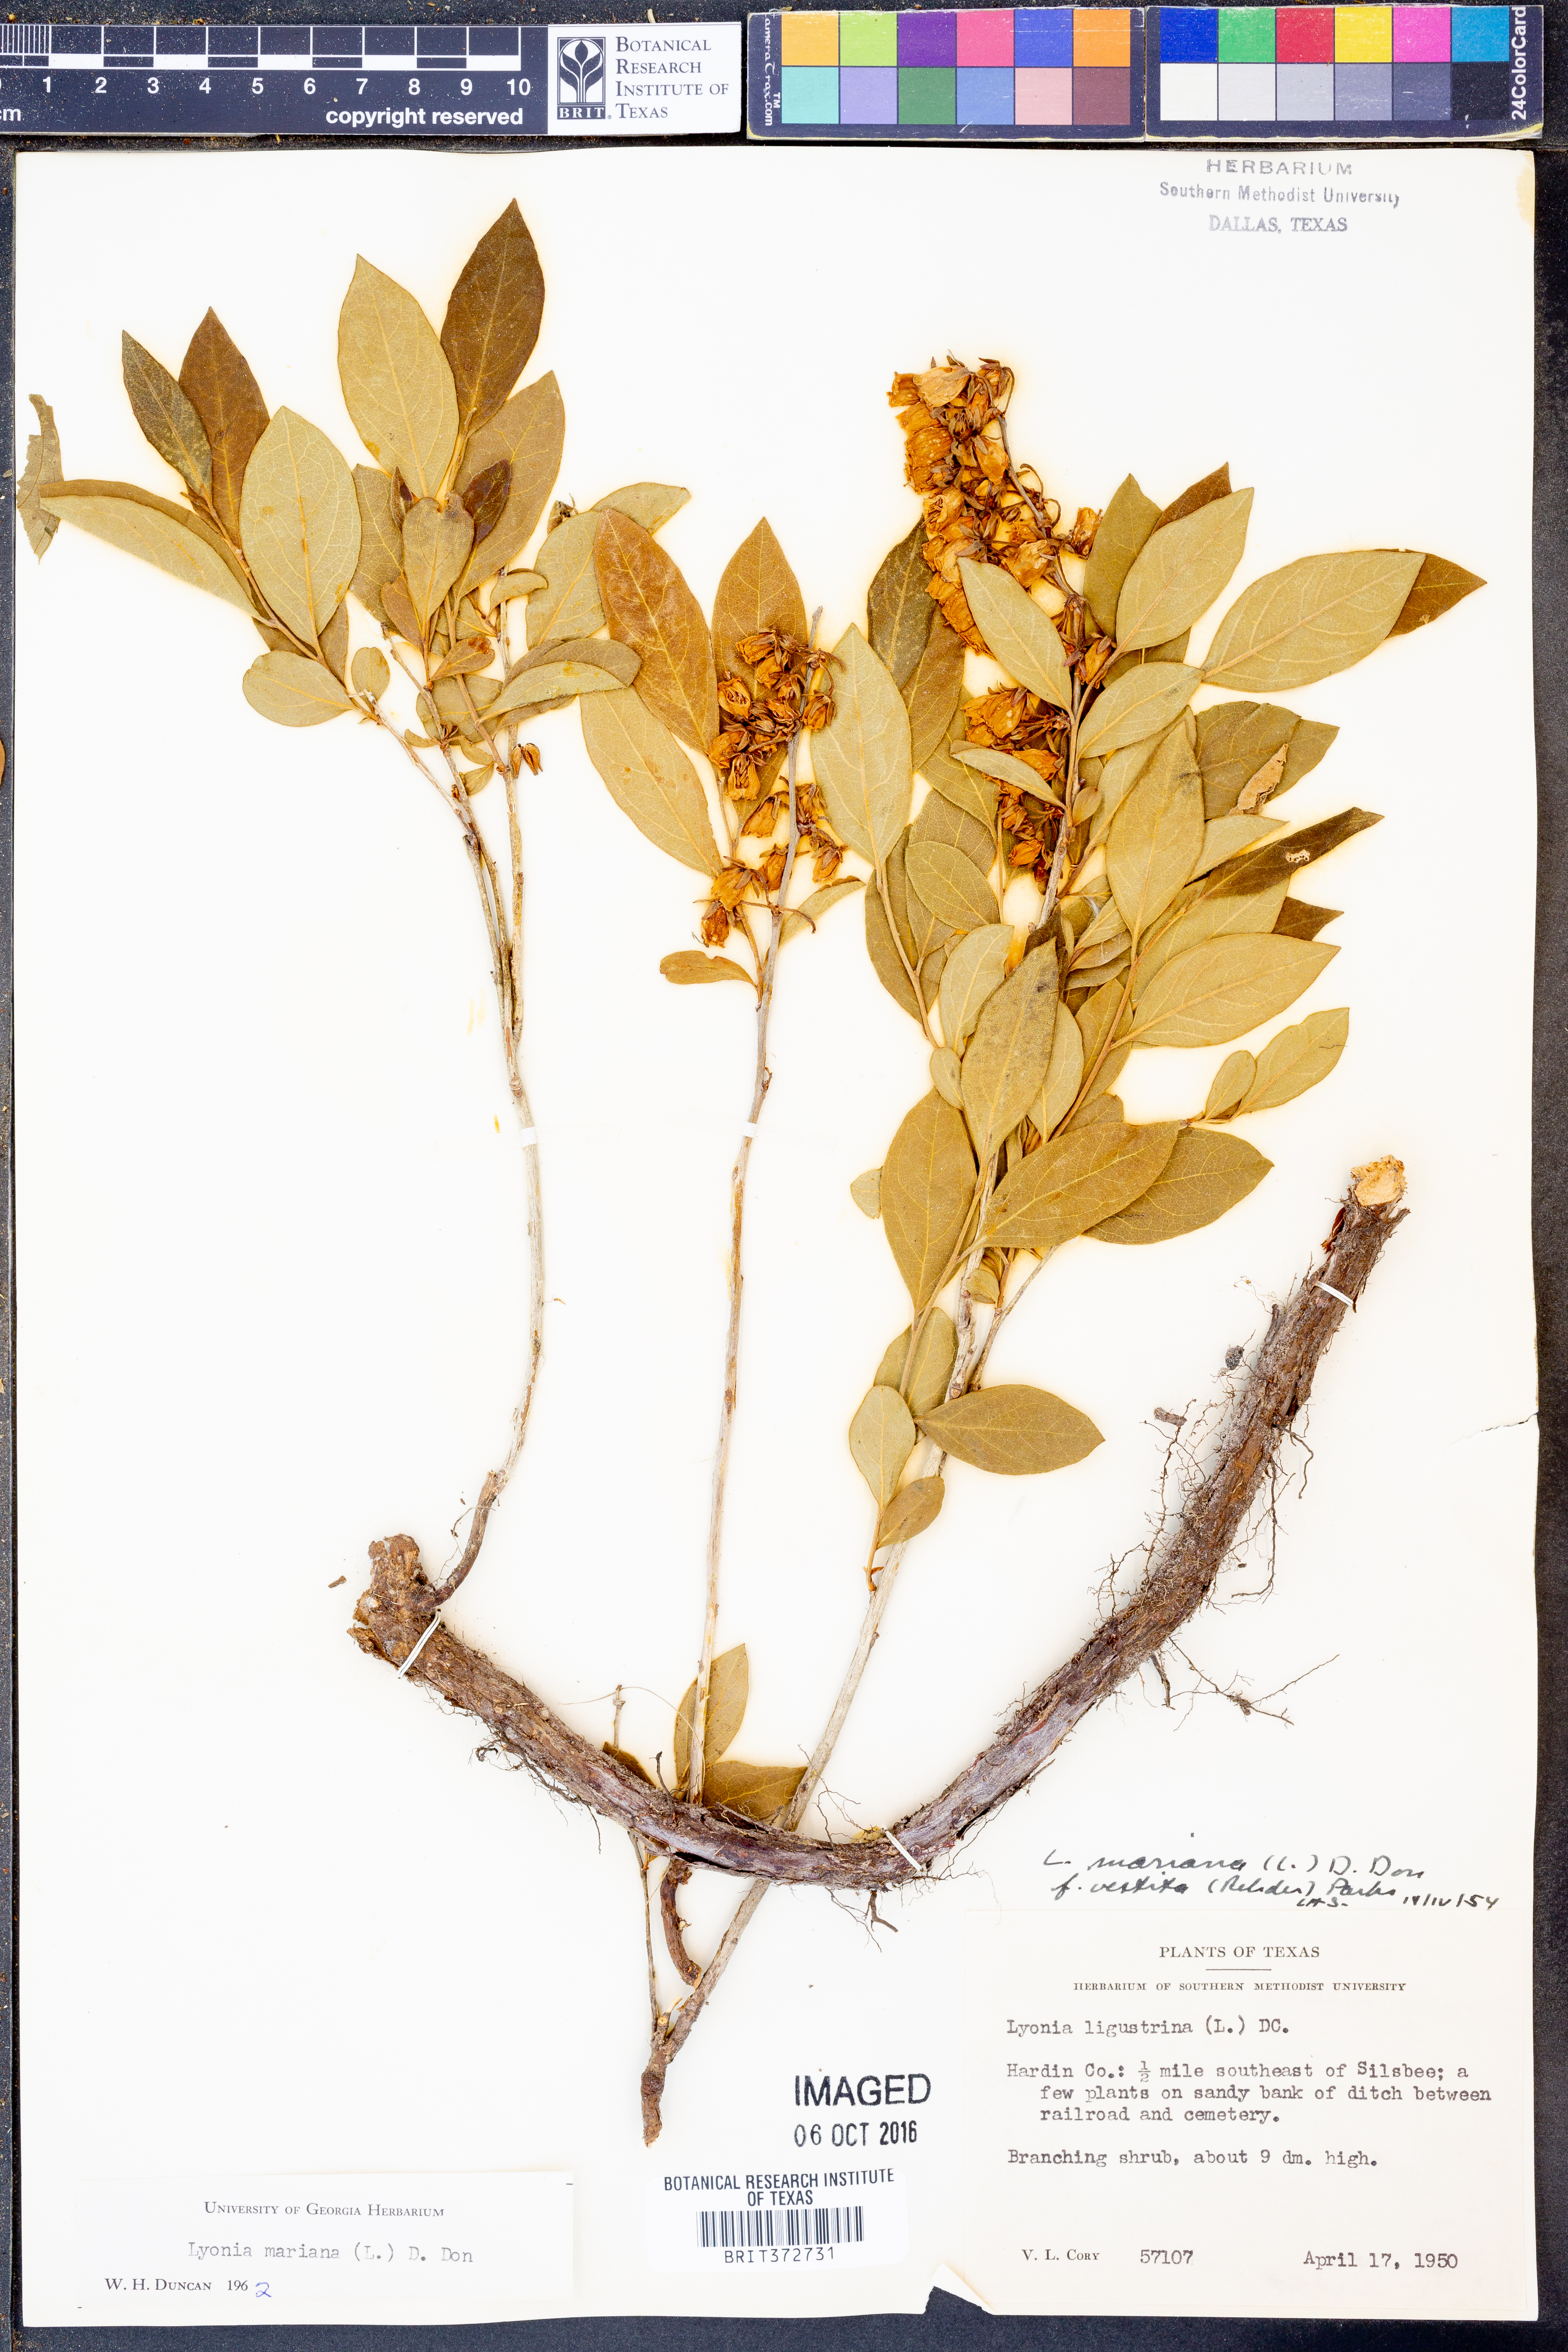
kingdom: Plantae
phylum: Tracheophyta
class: Magnoliopsida
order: Ericales
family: Ericaceae
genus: Lyonia
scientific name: Lyonia mariana
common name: Staggerbush
